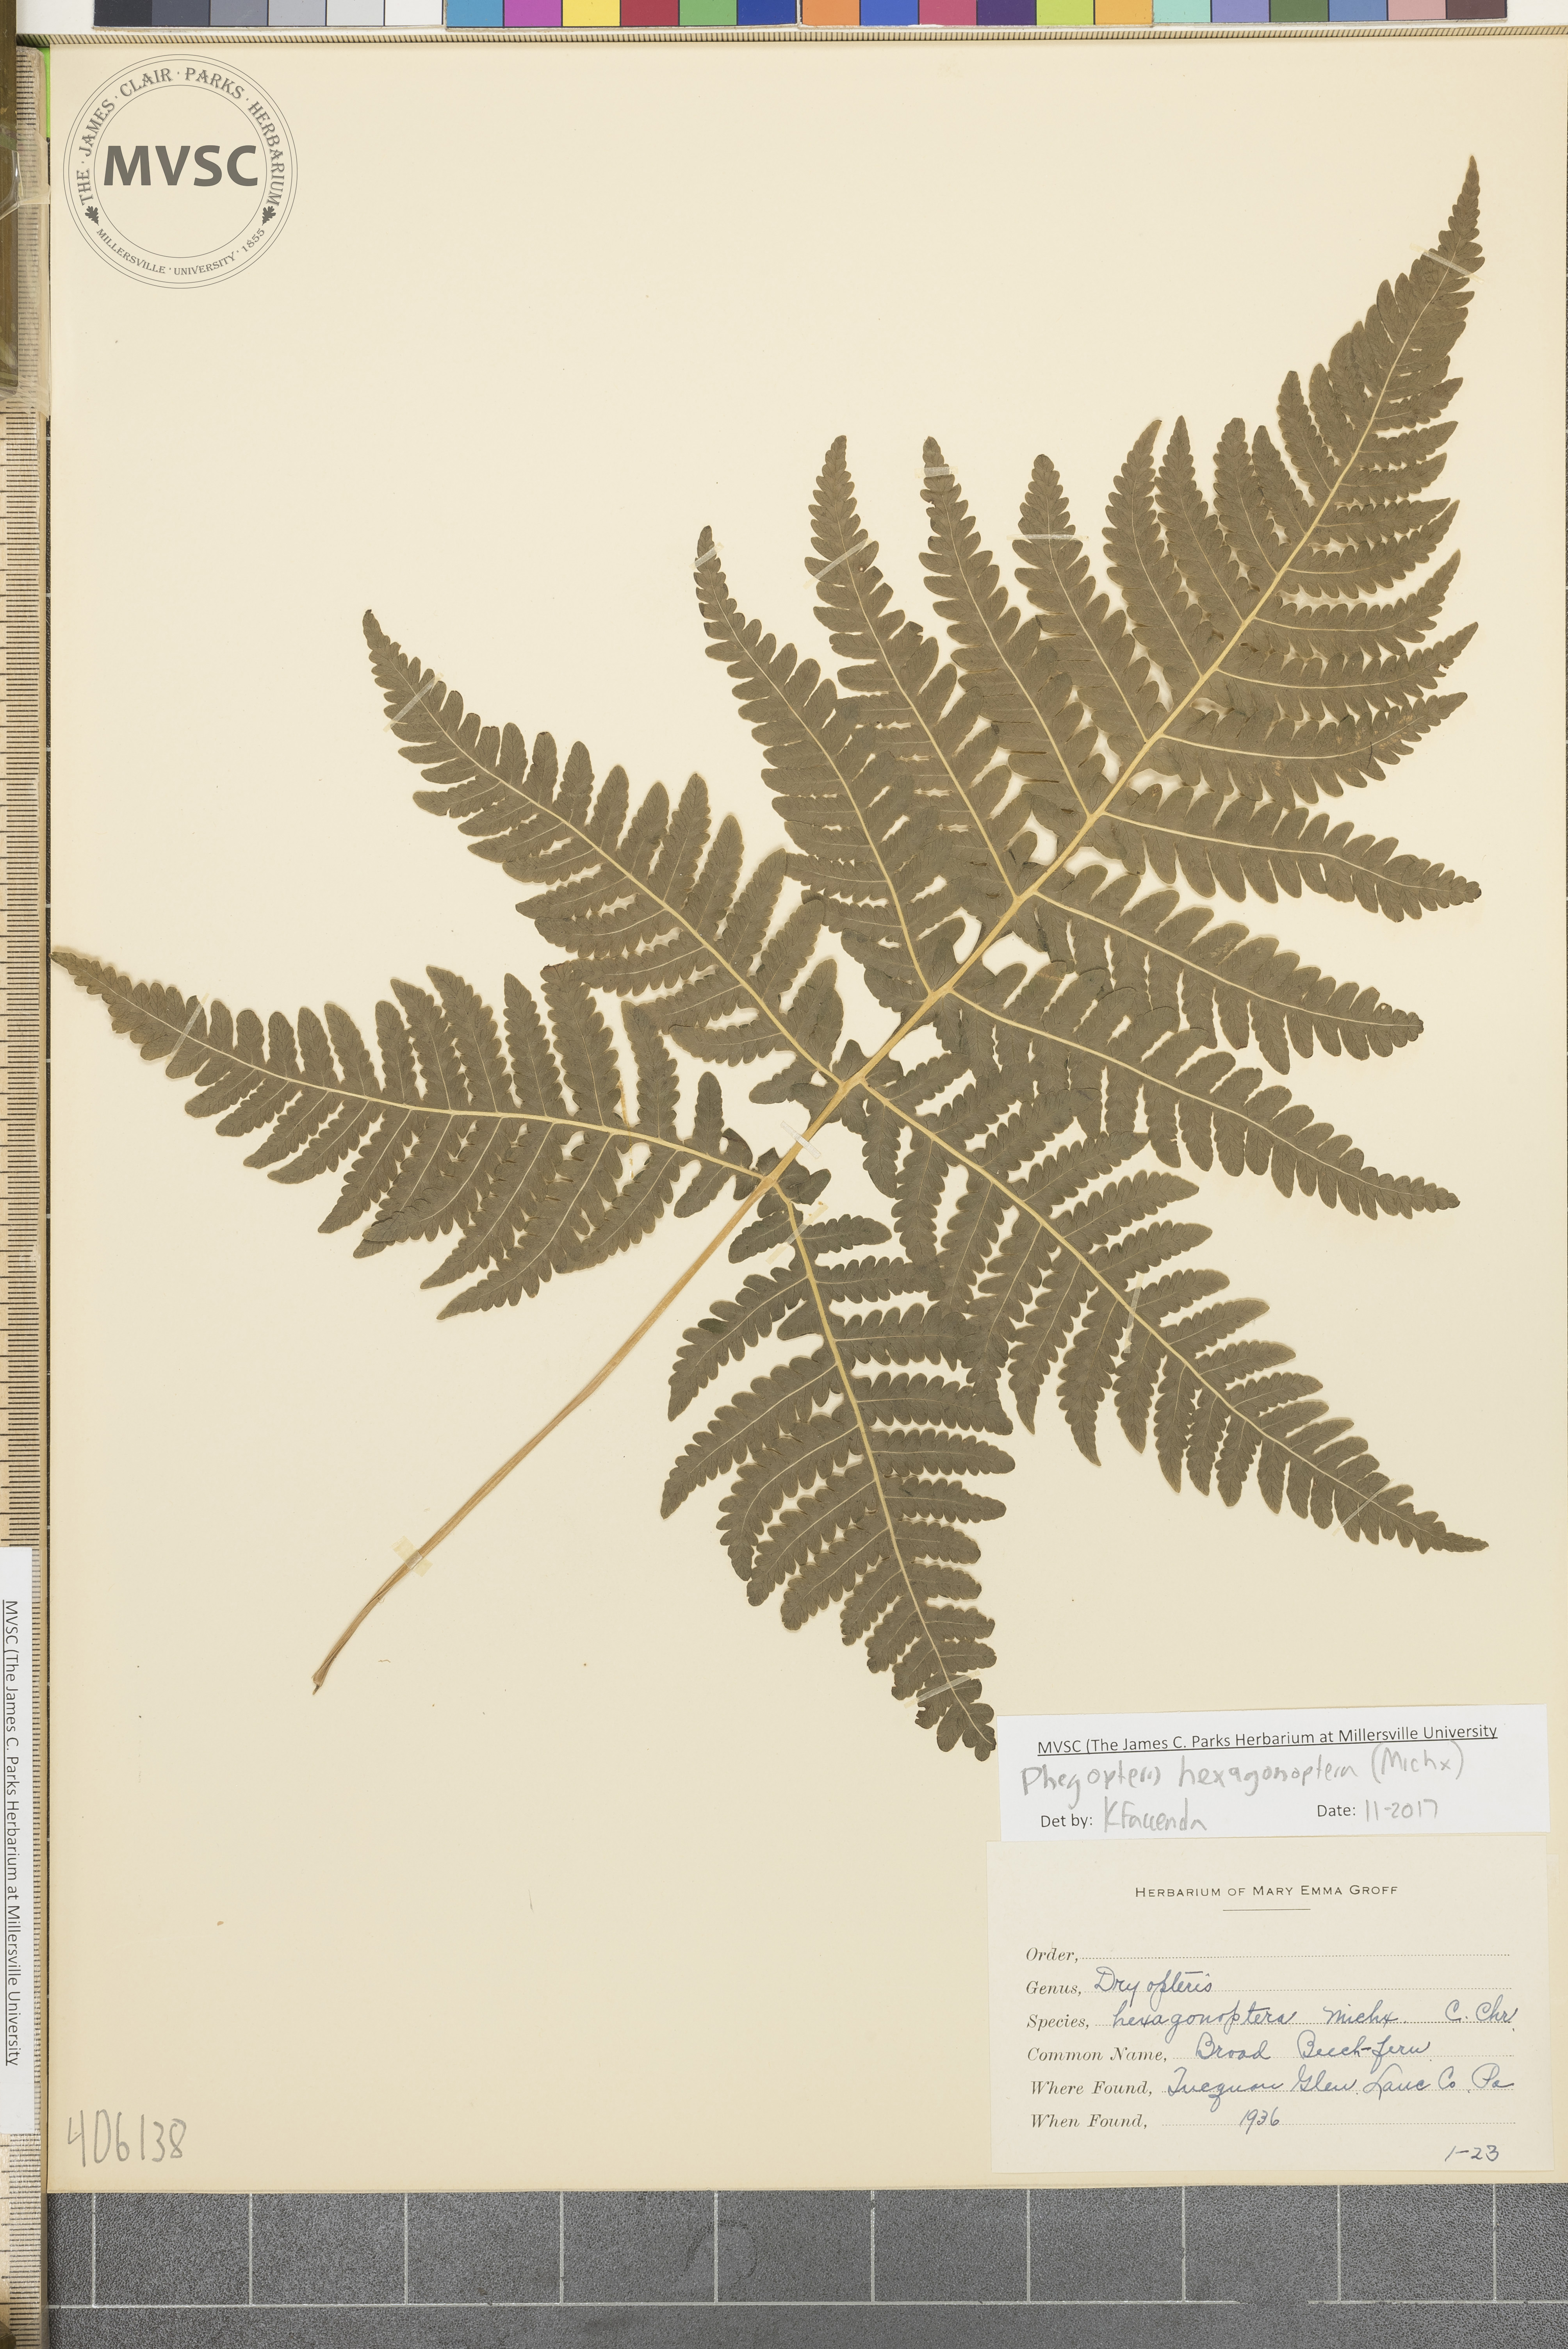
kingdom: Plantae
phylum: Tracheophyta
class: Polypodiopsida
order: Polypodiales
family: Thelypteridaceae
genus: Phegopteris
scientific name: Phegopteris hexagonoptera
